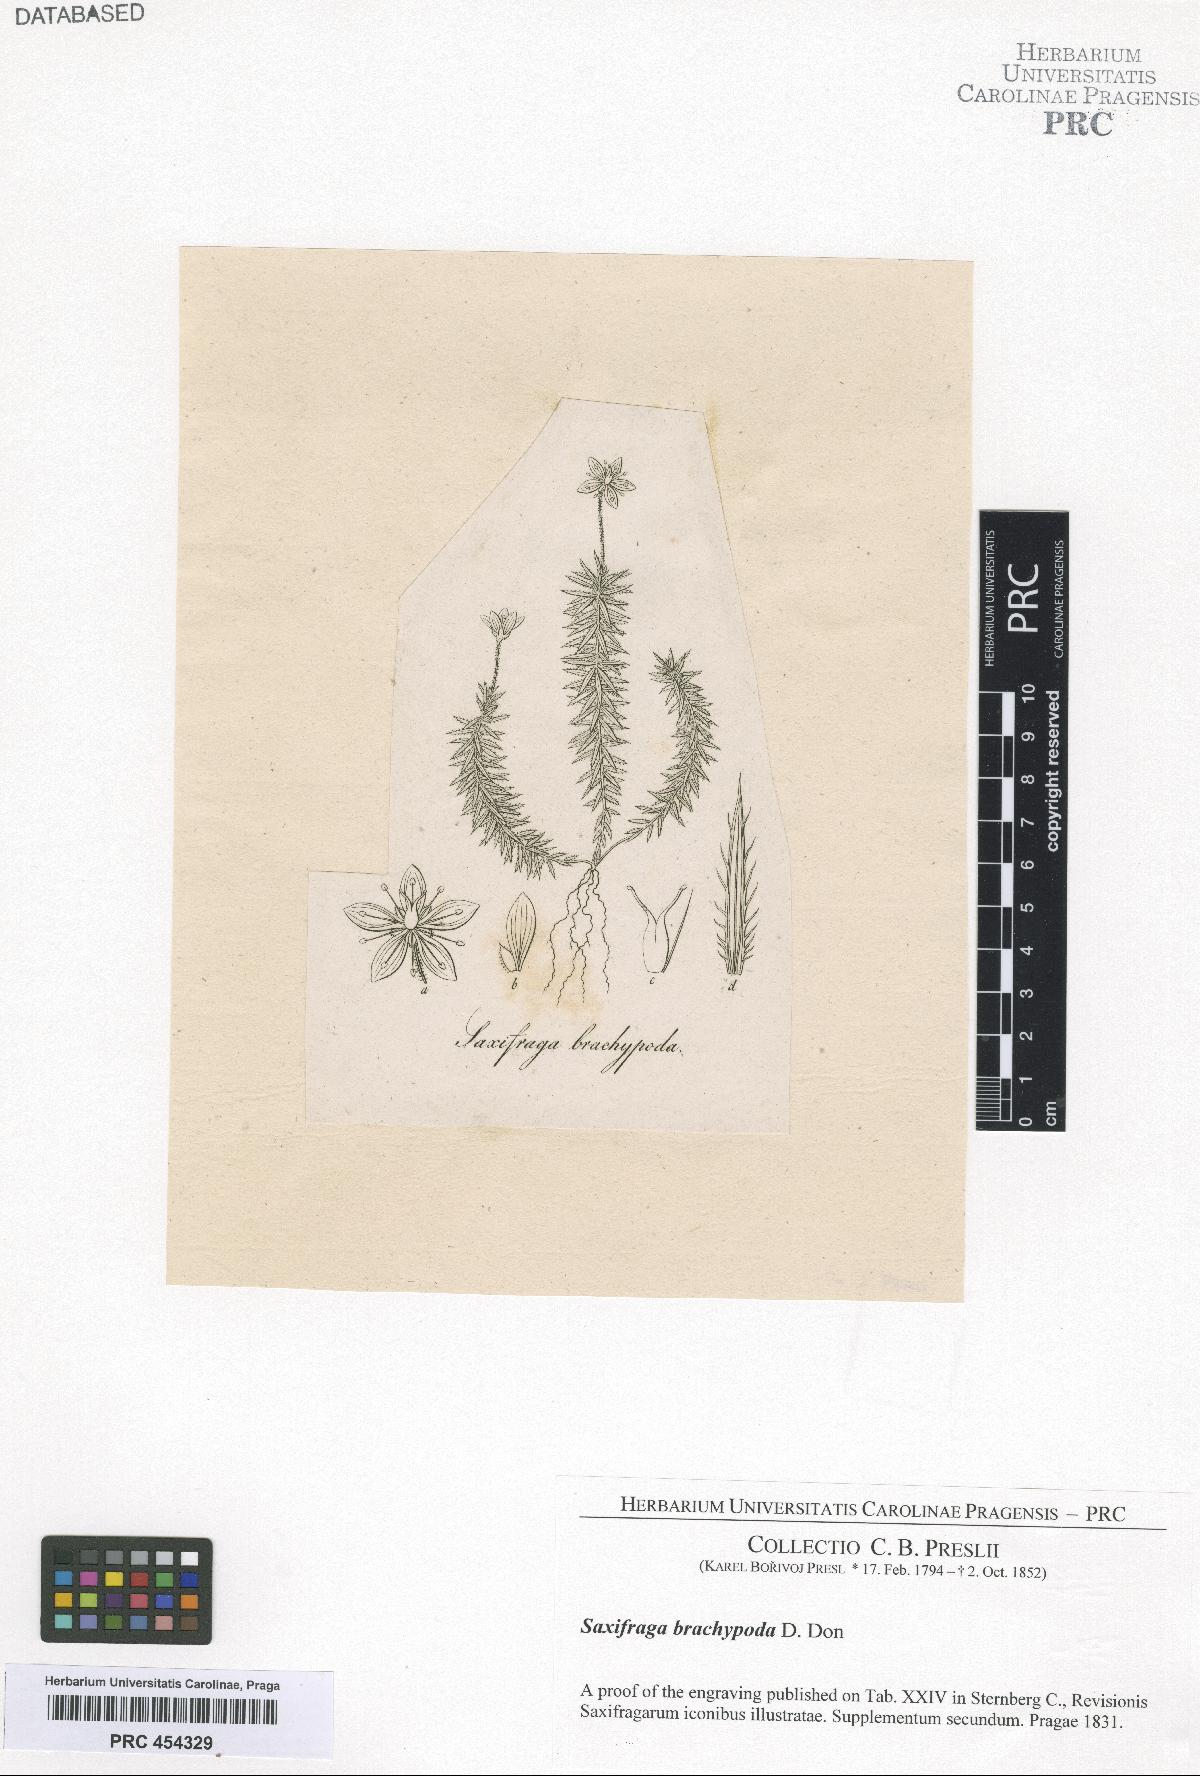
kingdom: Plantae
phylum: Tracheophyta
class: Magnoliopsida
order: Saxifragales
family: Saxifragaceae
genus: Saxifraga
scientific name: Saxifraga bronchialis
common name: Matted saxifrage
